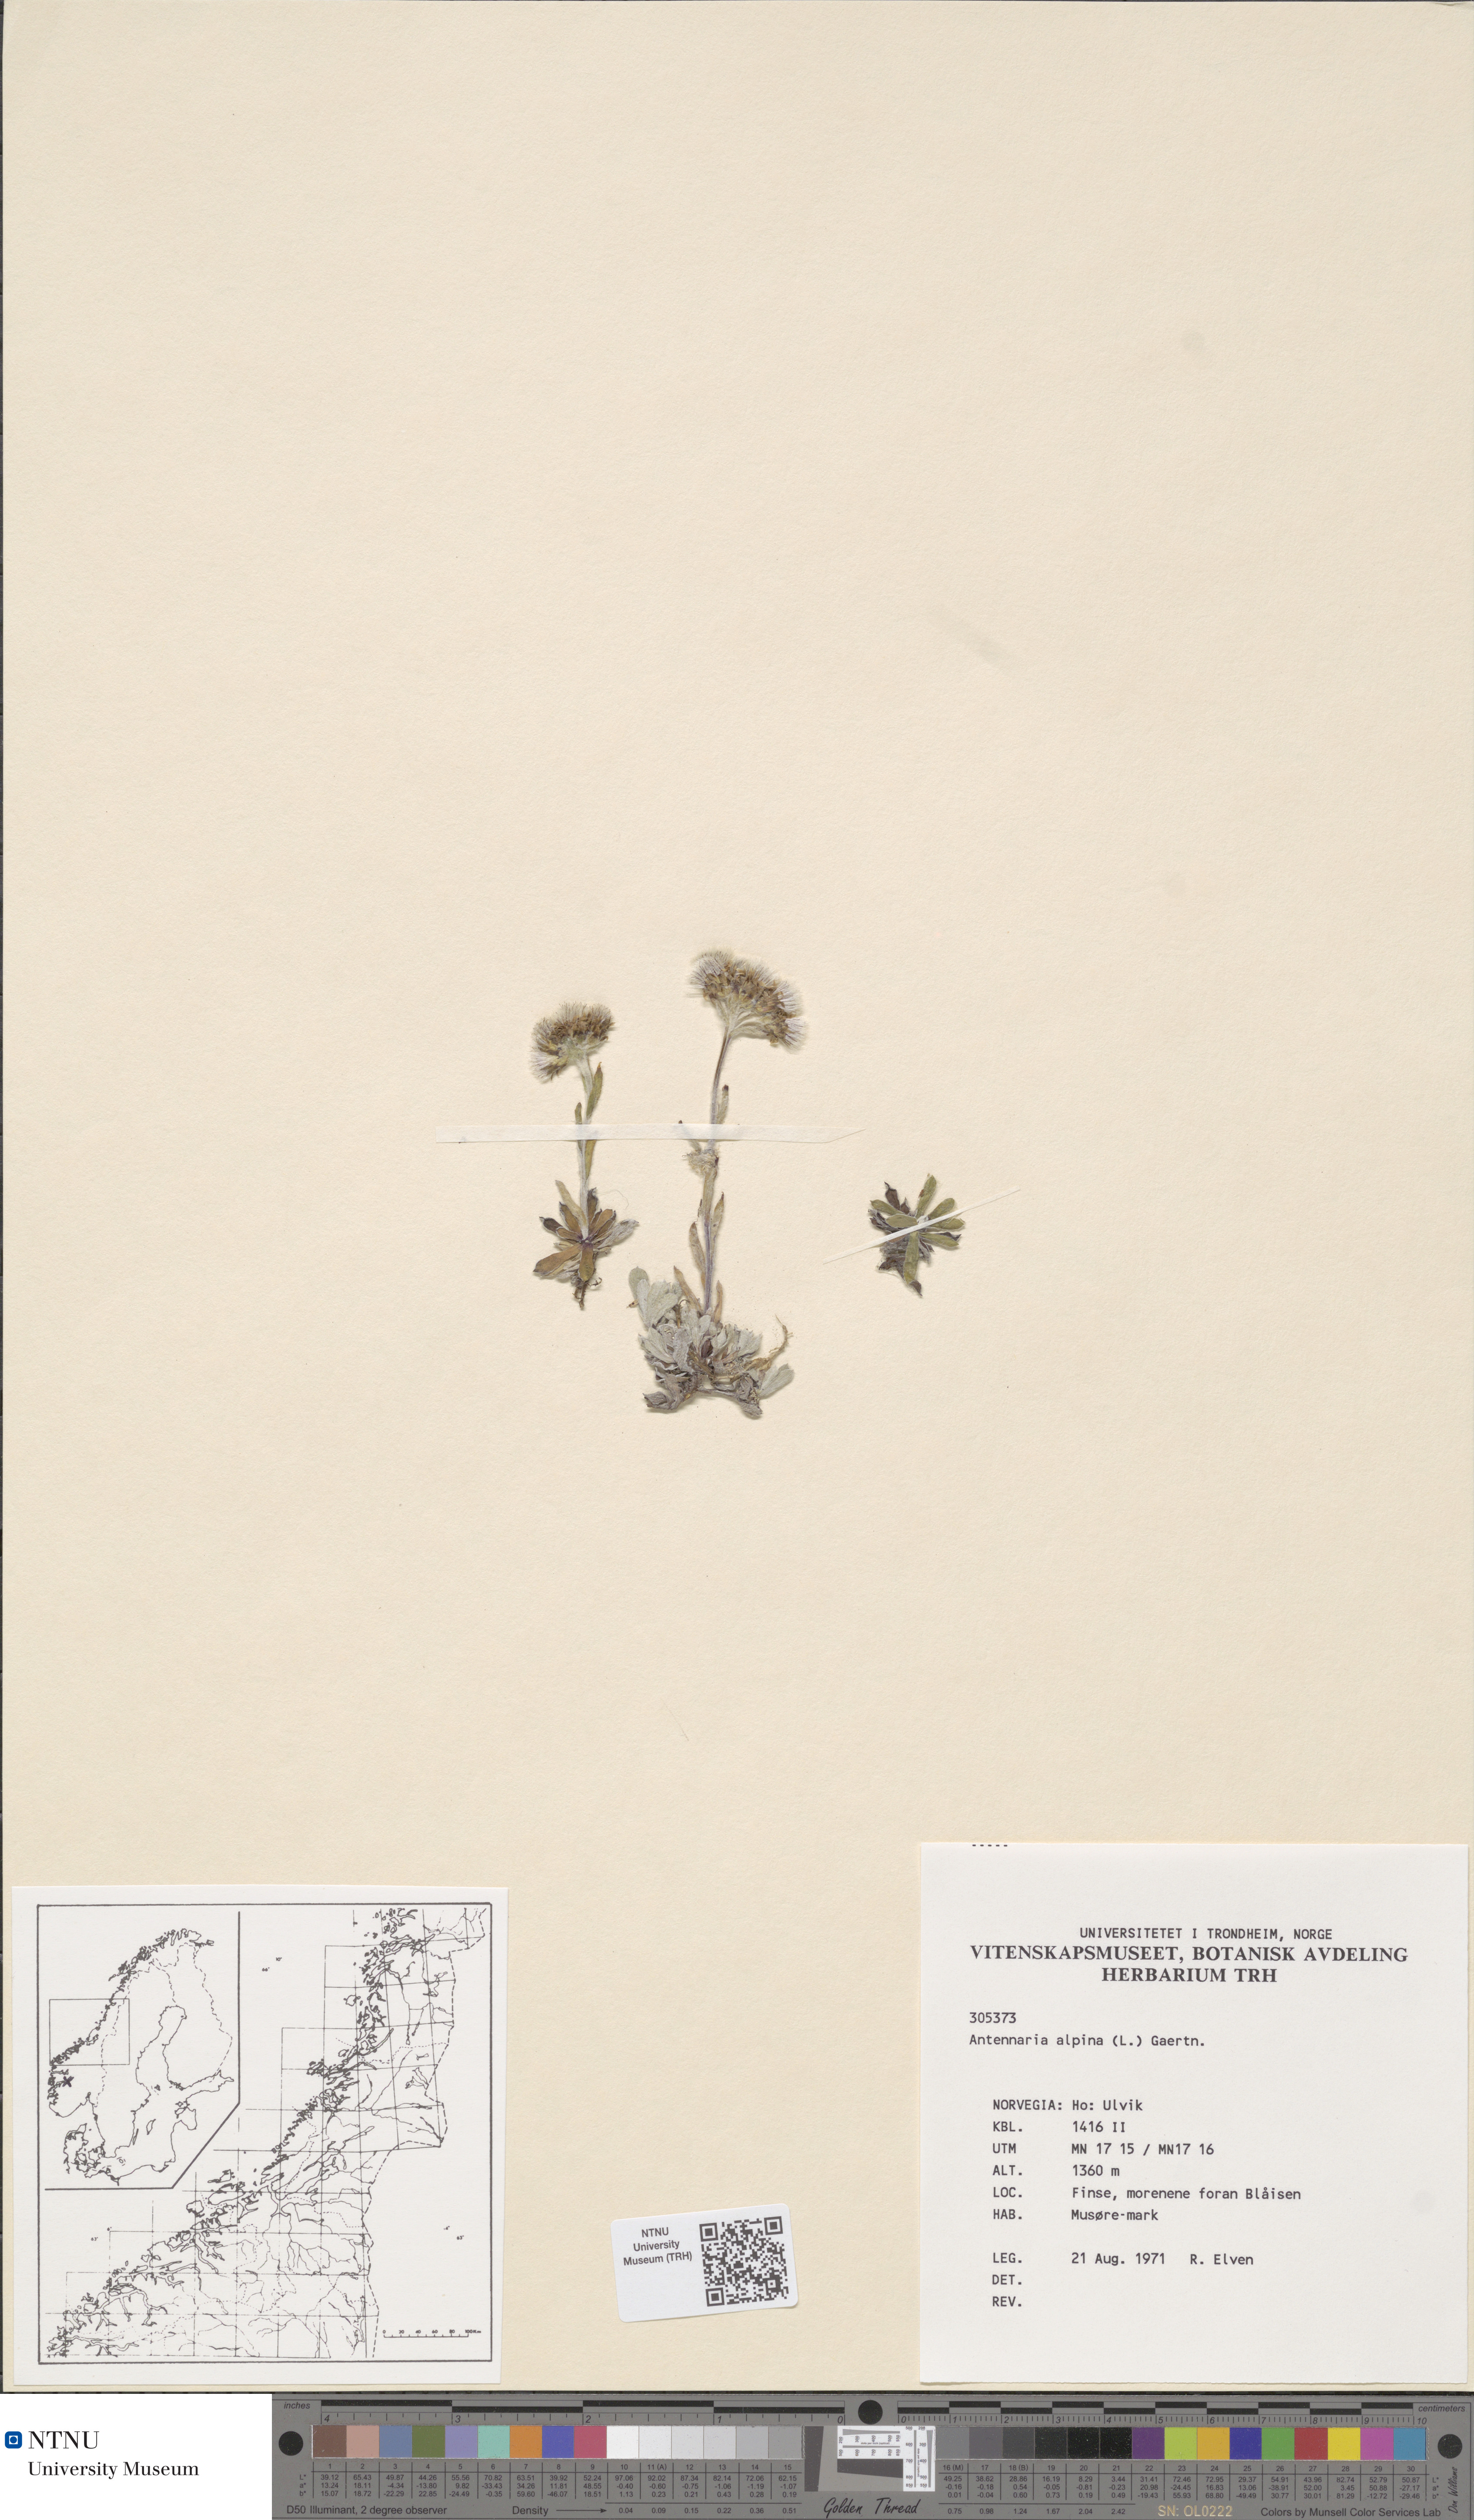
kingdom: Plantae
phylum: Tracheophyta
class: Magnoliopsida
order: Asterales
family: Asteraceae
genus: Antennaria
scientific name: Antennaria alpina
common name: Alpine pussytoes
